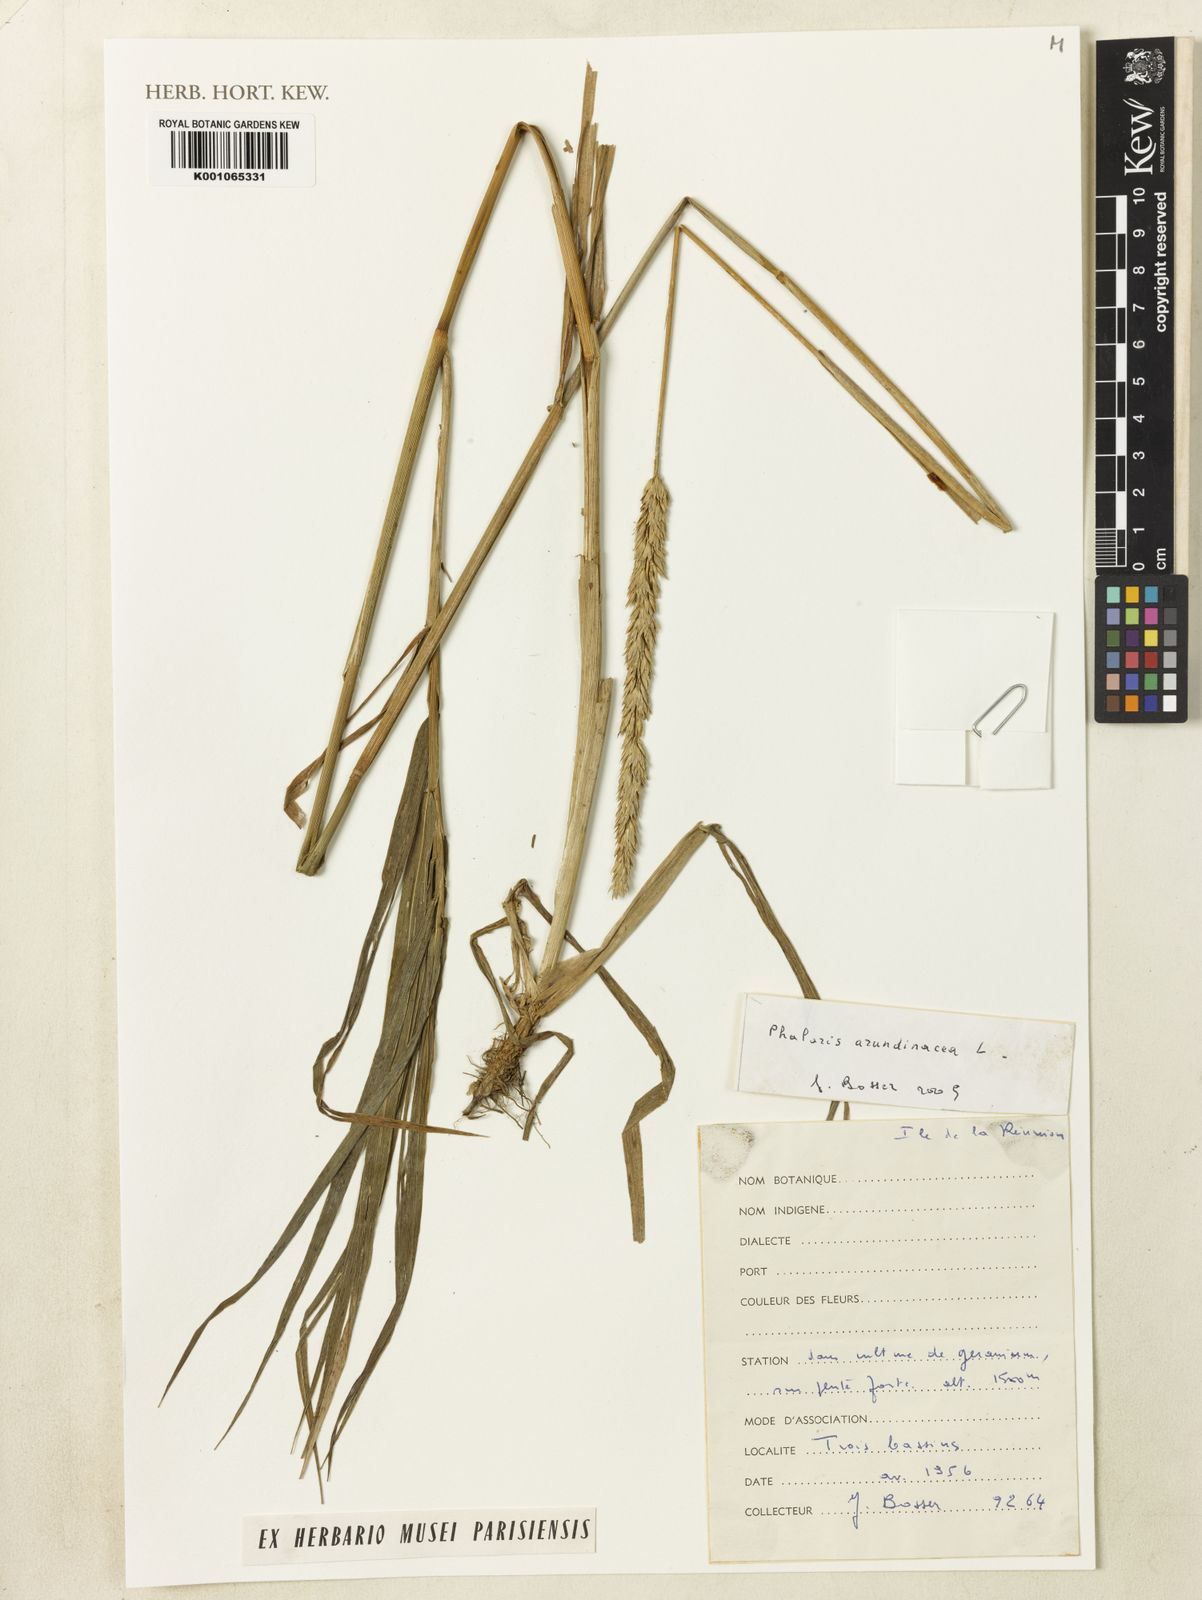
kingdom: Plantae
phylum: Tracheophyta
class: Liliopsida
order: Poales
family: Poaceae
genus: Phalaris
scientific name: Phalaris arundinacea
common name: Reed canary-grass
